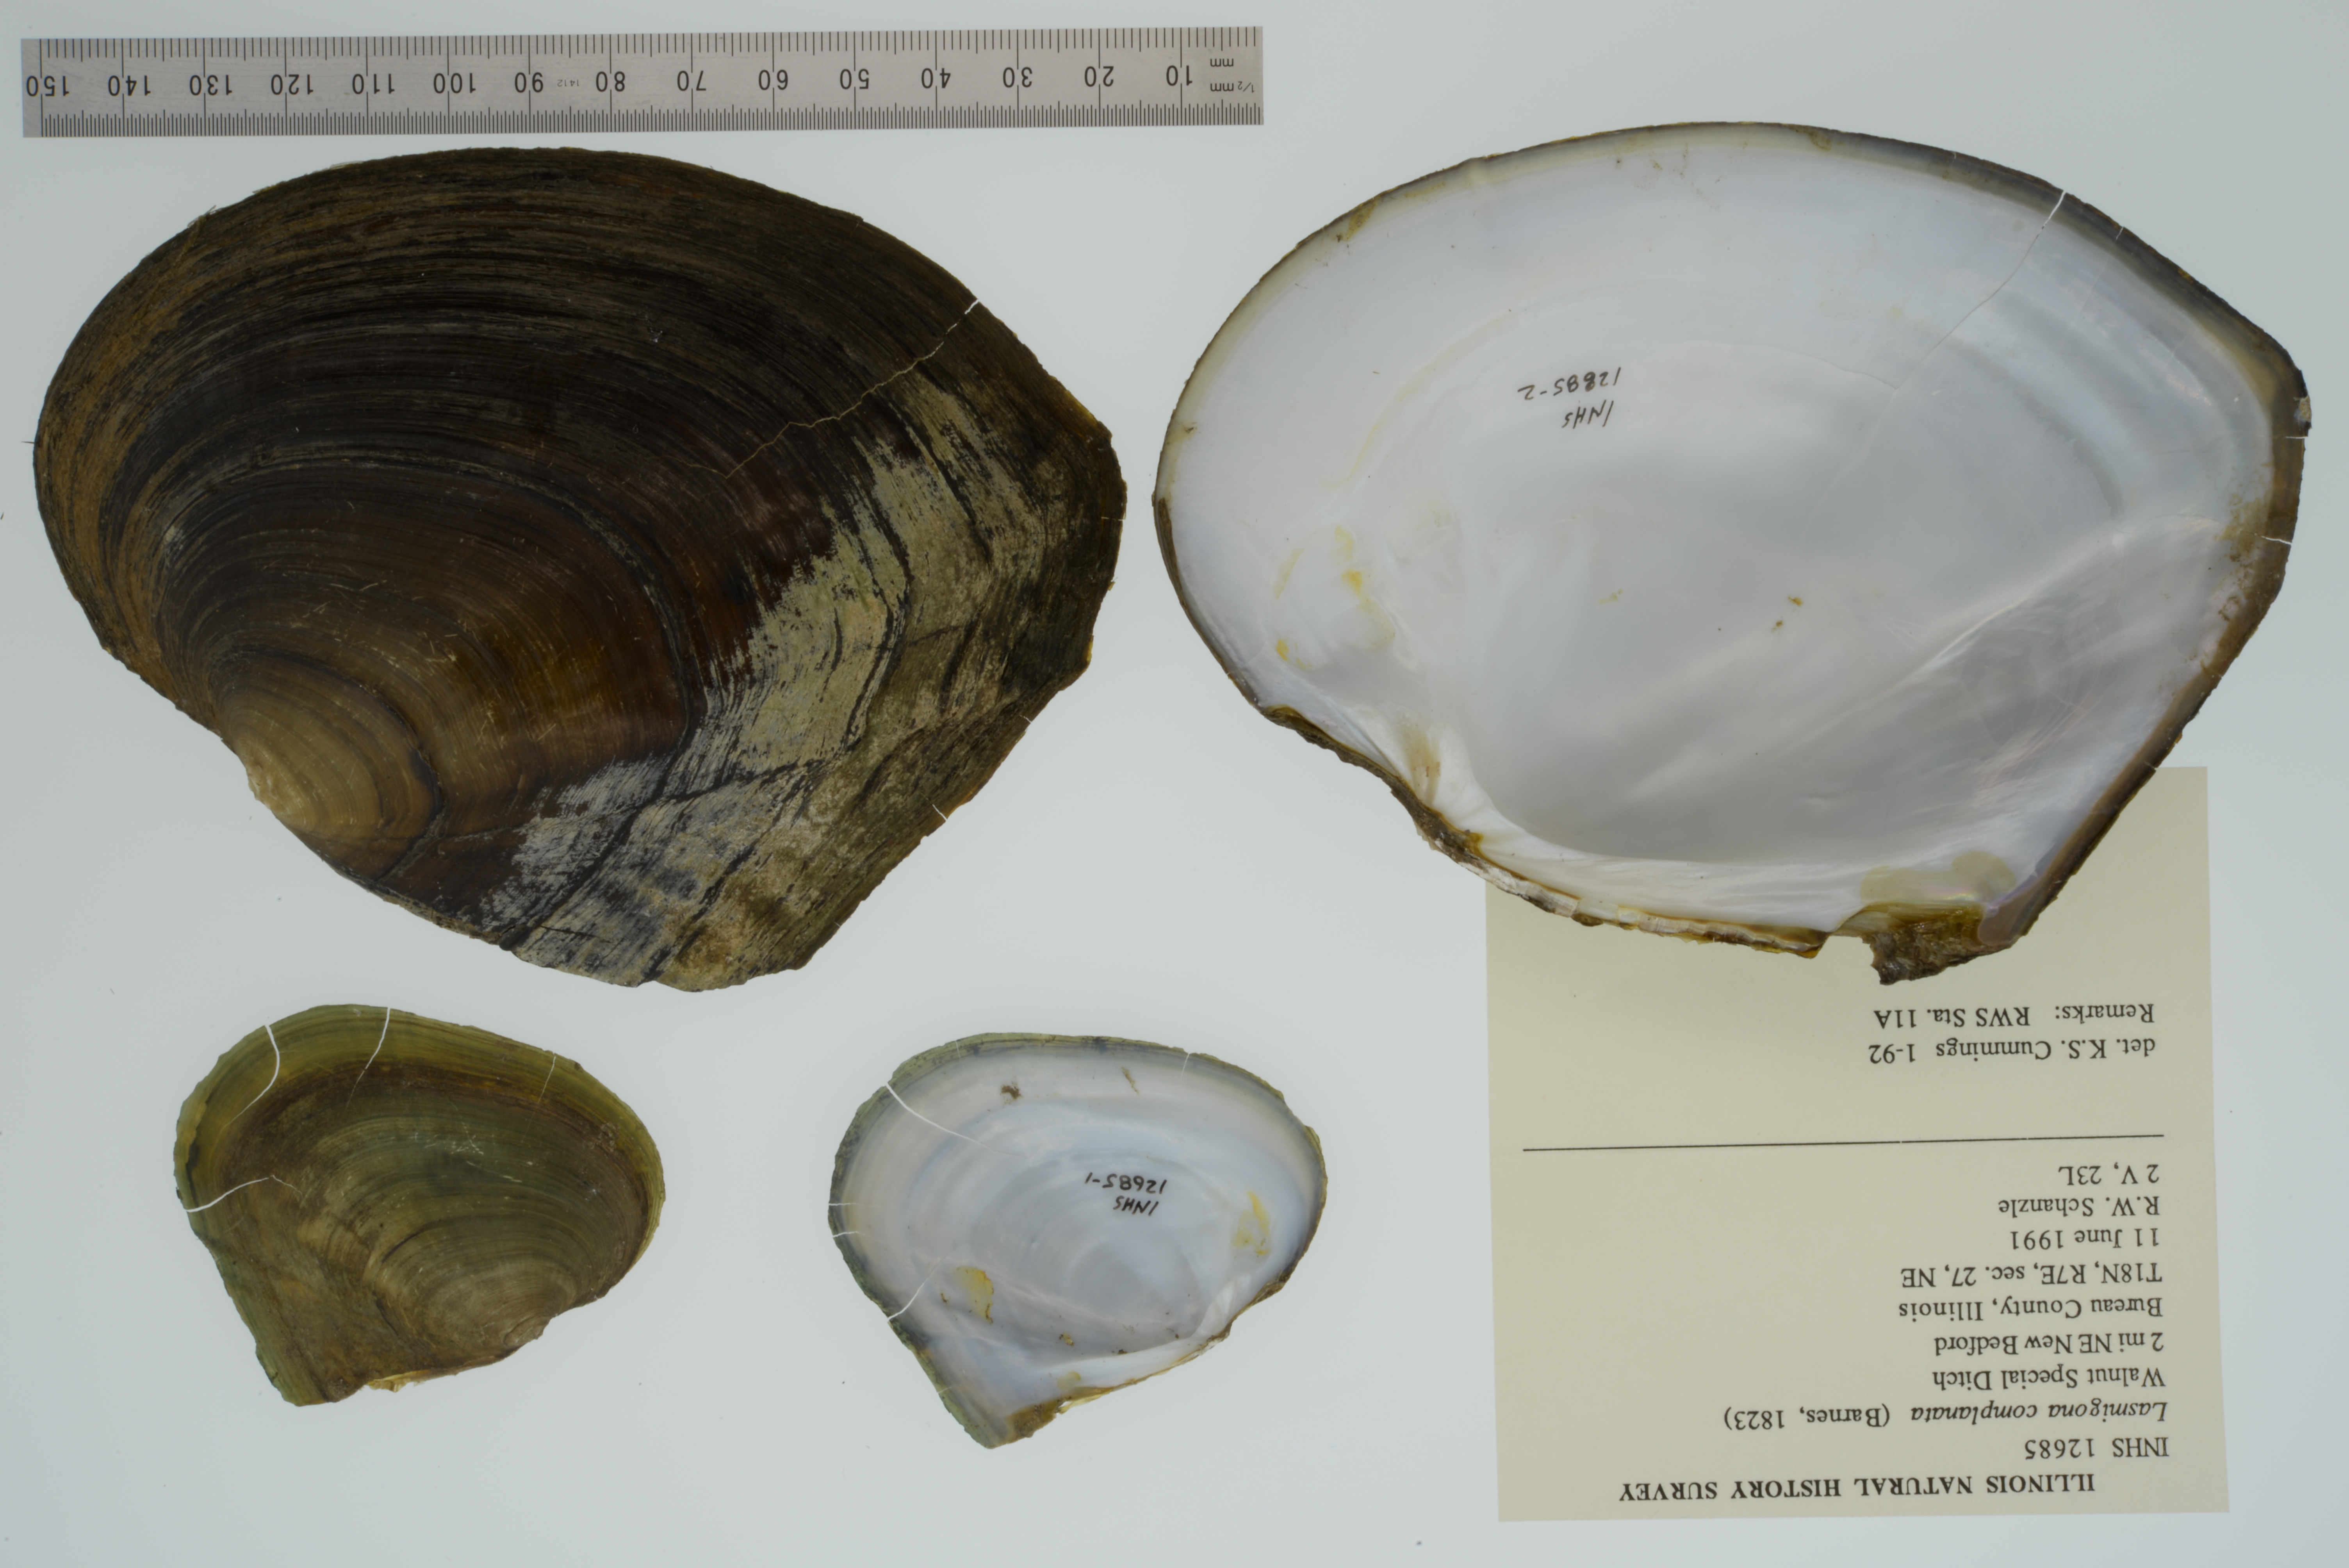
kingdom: Animalia
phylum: Mollusca
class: Bivalvia
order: Unionida
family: Unionidae
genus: Lasmigona
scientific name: Lasmigona complanata
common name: White heelsplitter
